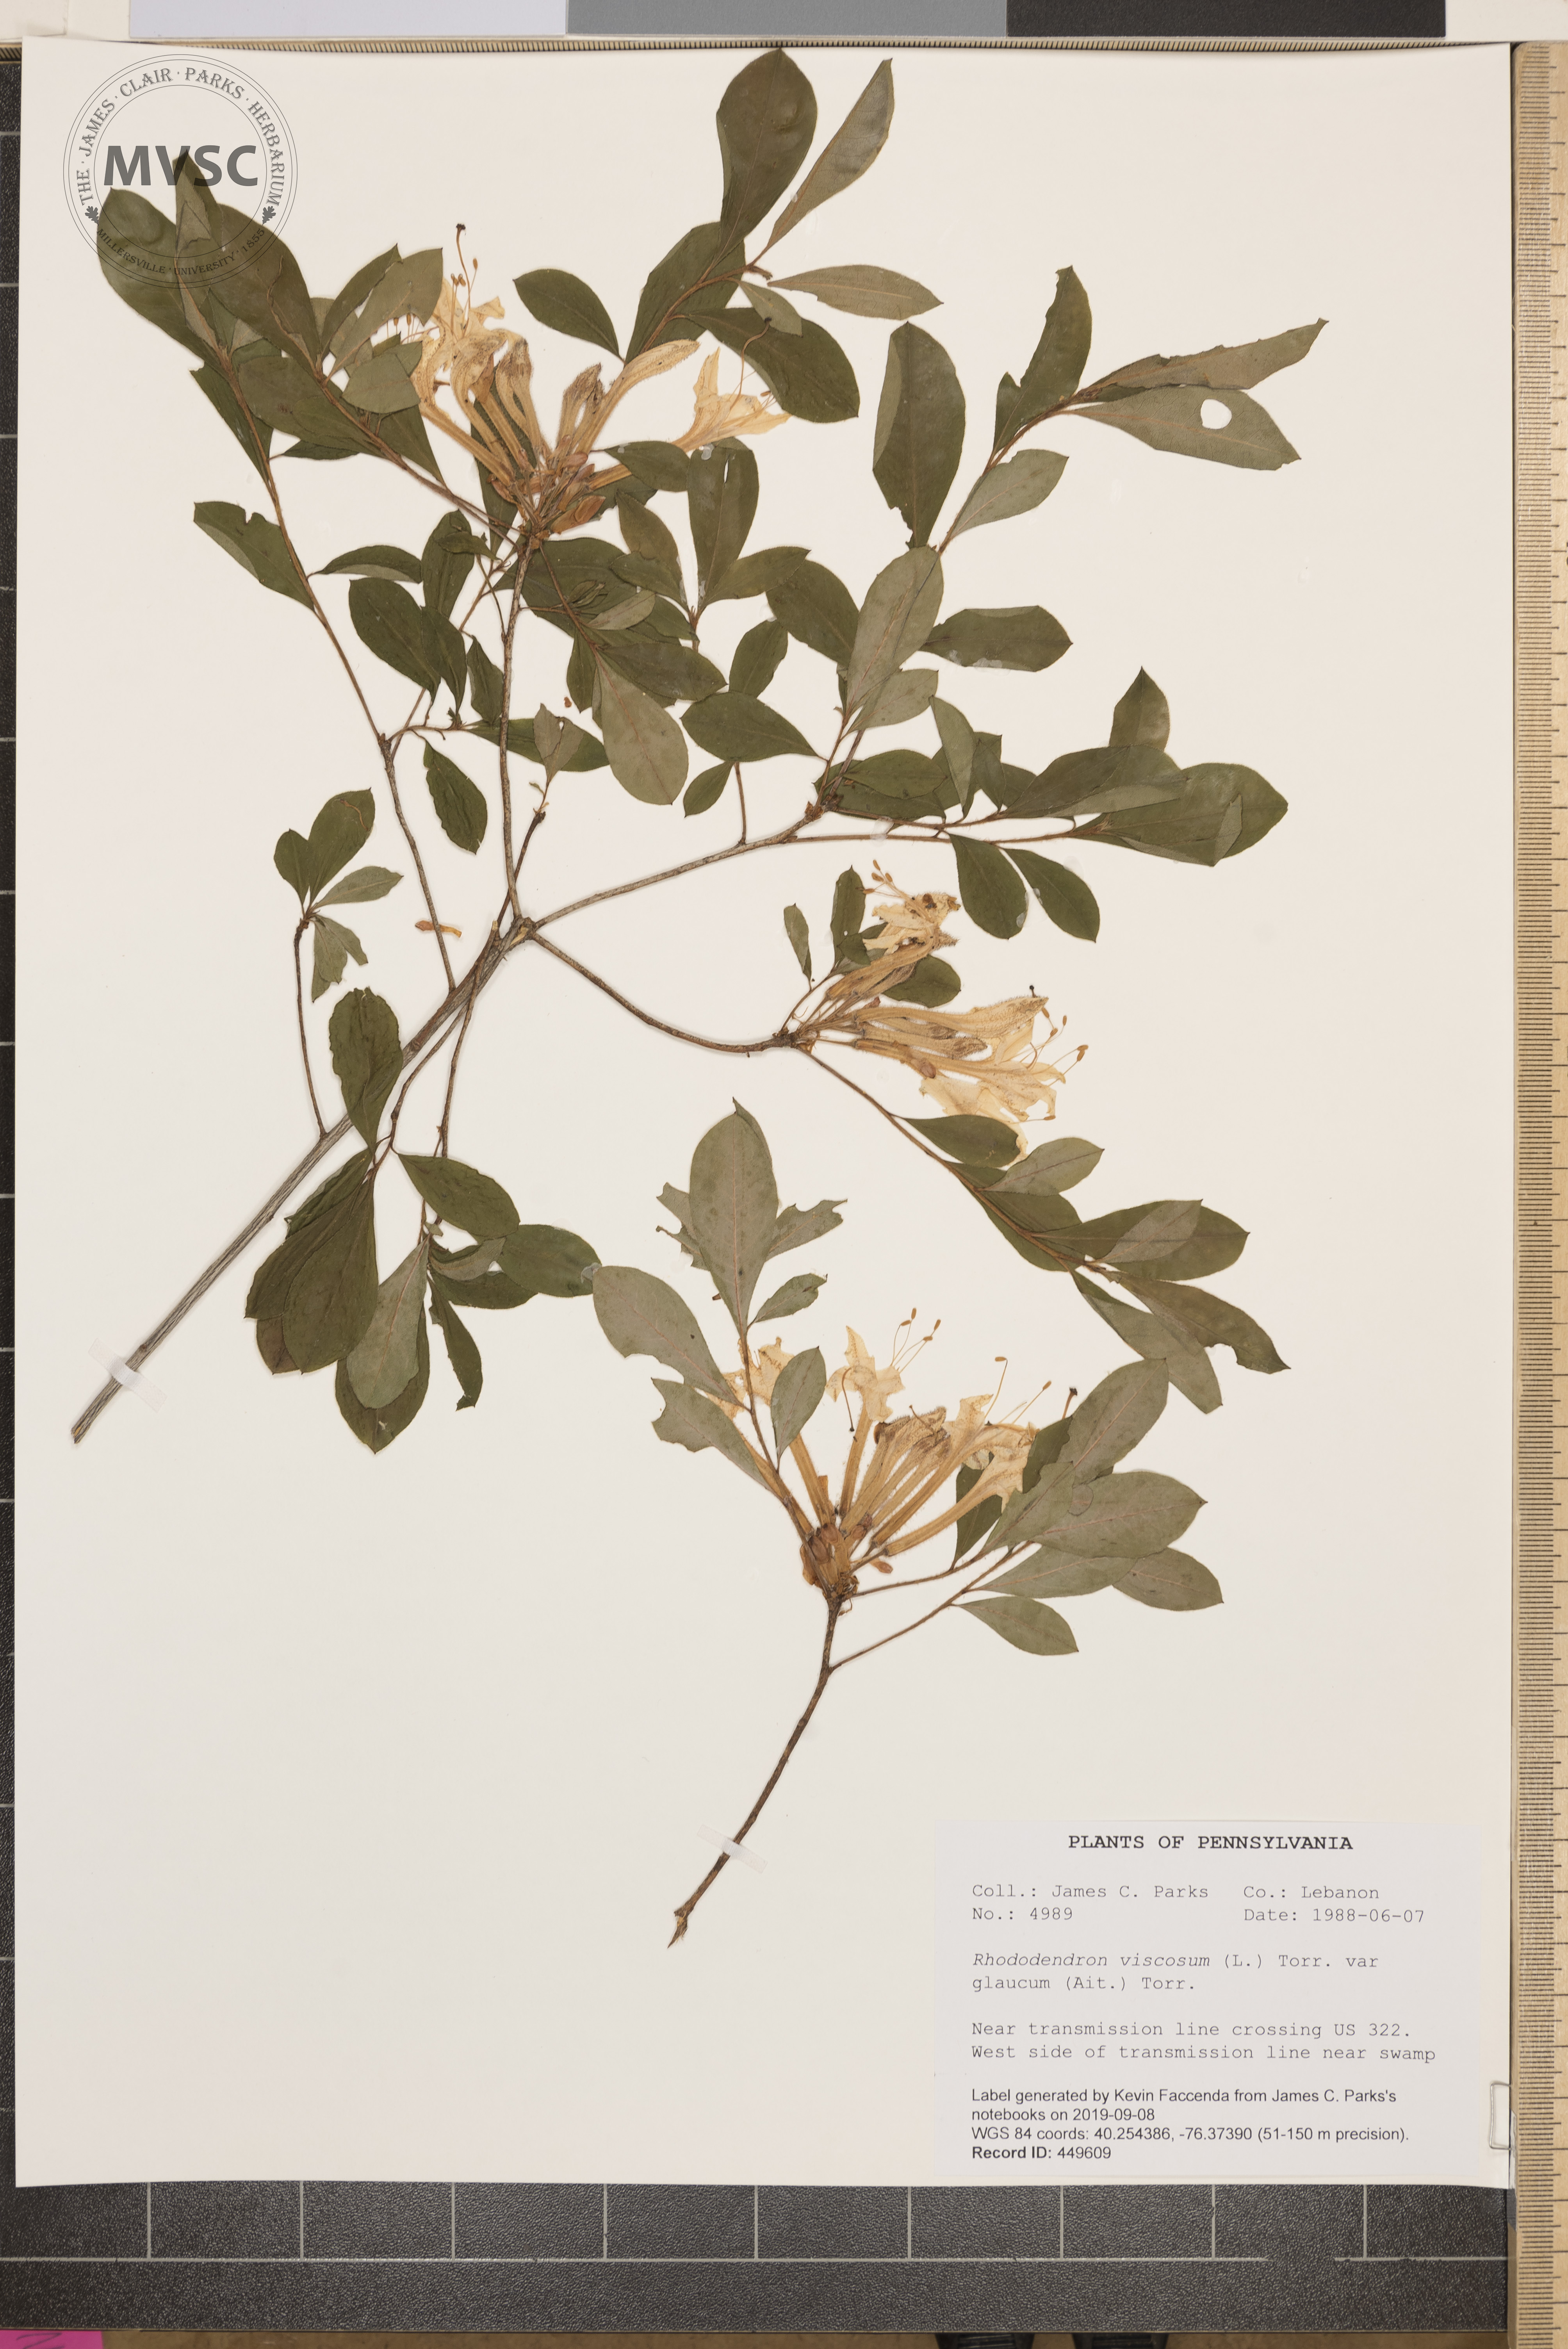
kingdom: Plantae
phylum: Tracheophyta
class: Magnoliopsida
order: Ericales
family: Ericaceae
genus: Rhododendron
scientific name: Rhododendron viscosum
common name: Clammy azalea
